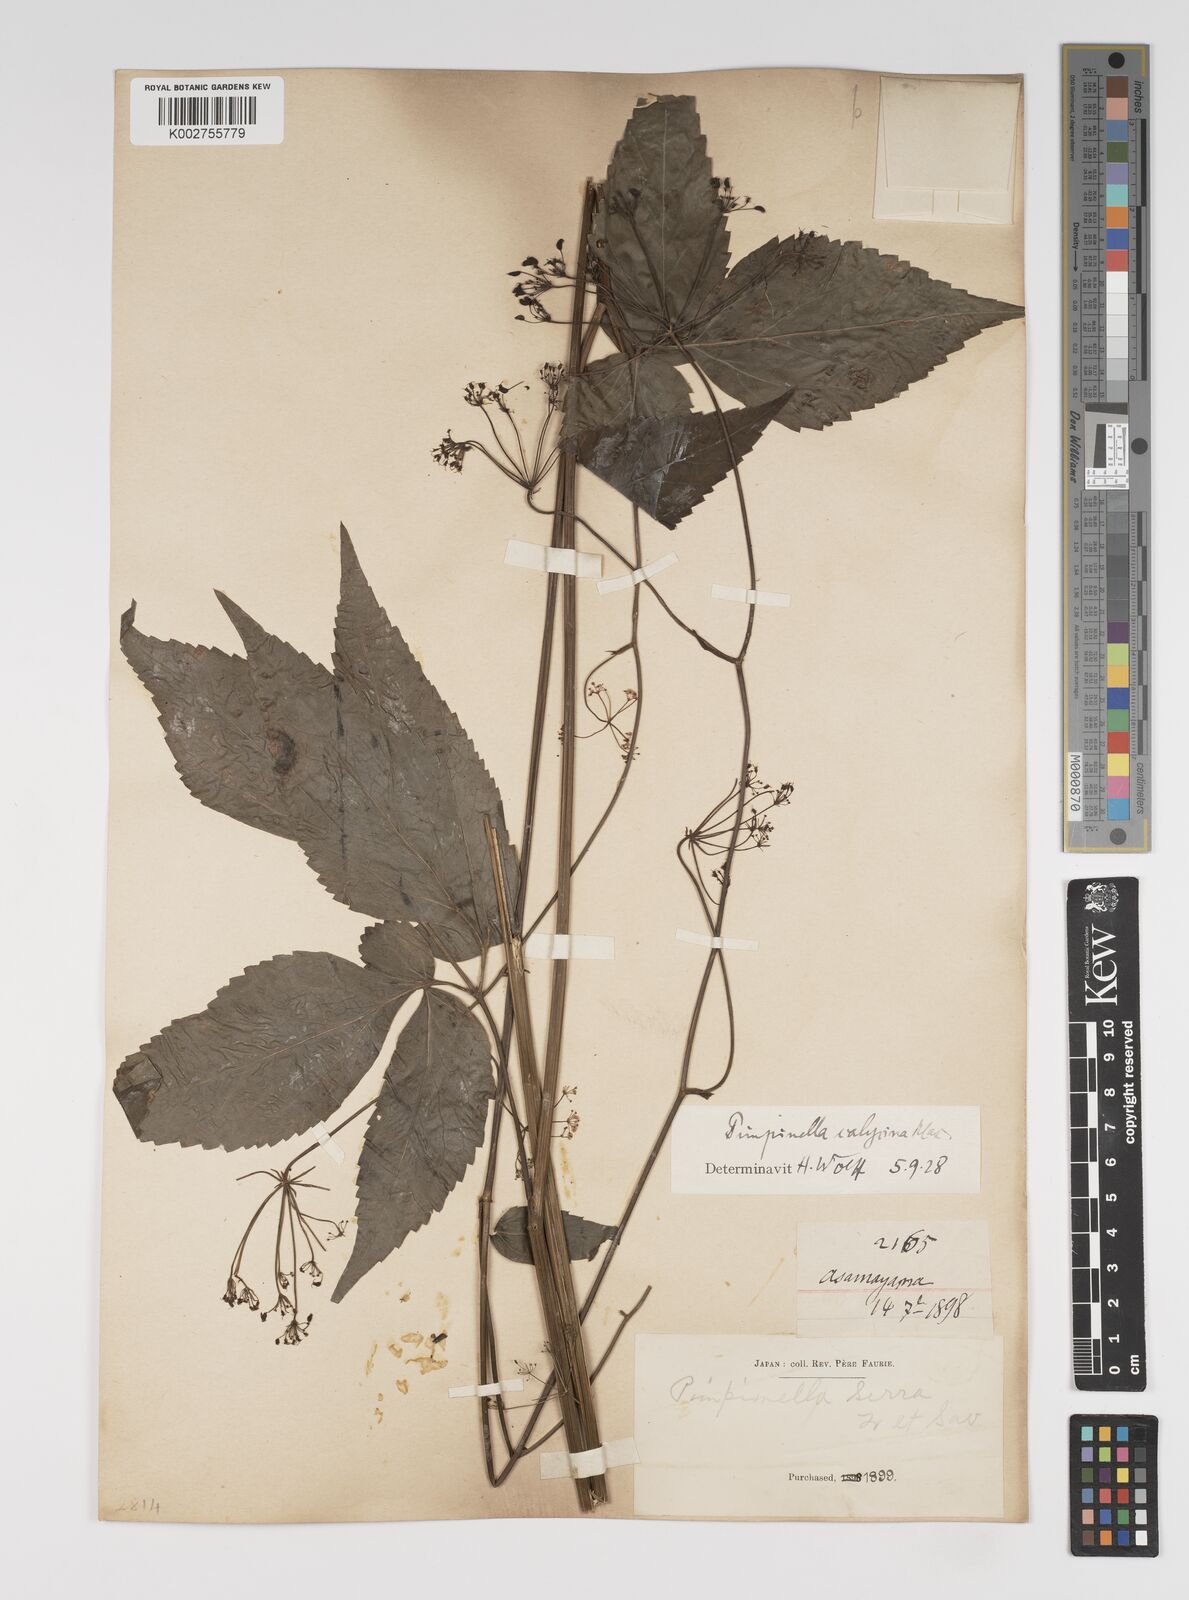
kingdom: Plantae
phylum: Tracheophyta
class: Magnoliopsida
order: Apiales
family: Apiaceae
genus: Spuriopimpinella
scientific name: Spuriopimpinella calycina
